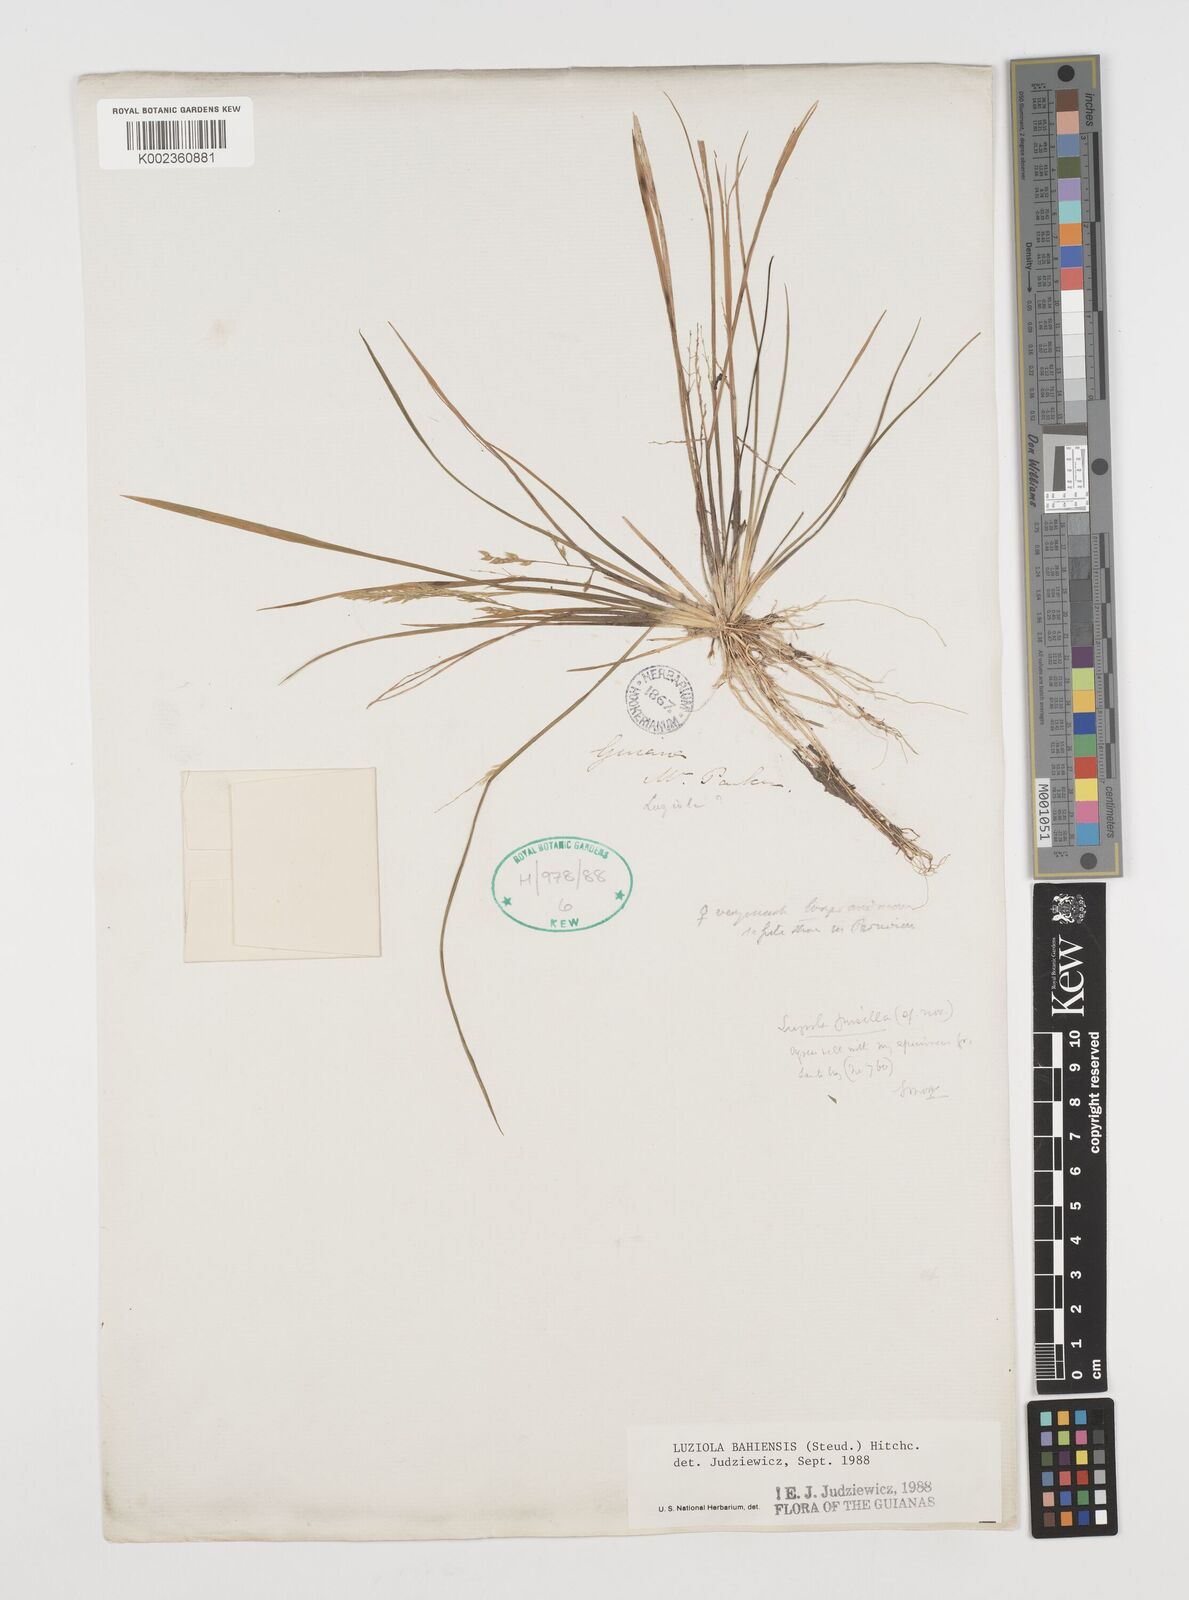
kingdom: Plantae
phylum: Tracheophyta
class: Liliopsida
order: Poales
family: Poaceae
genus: Luziola
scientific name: Luziola bahiensis
